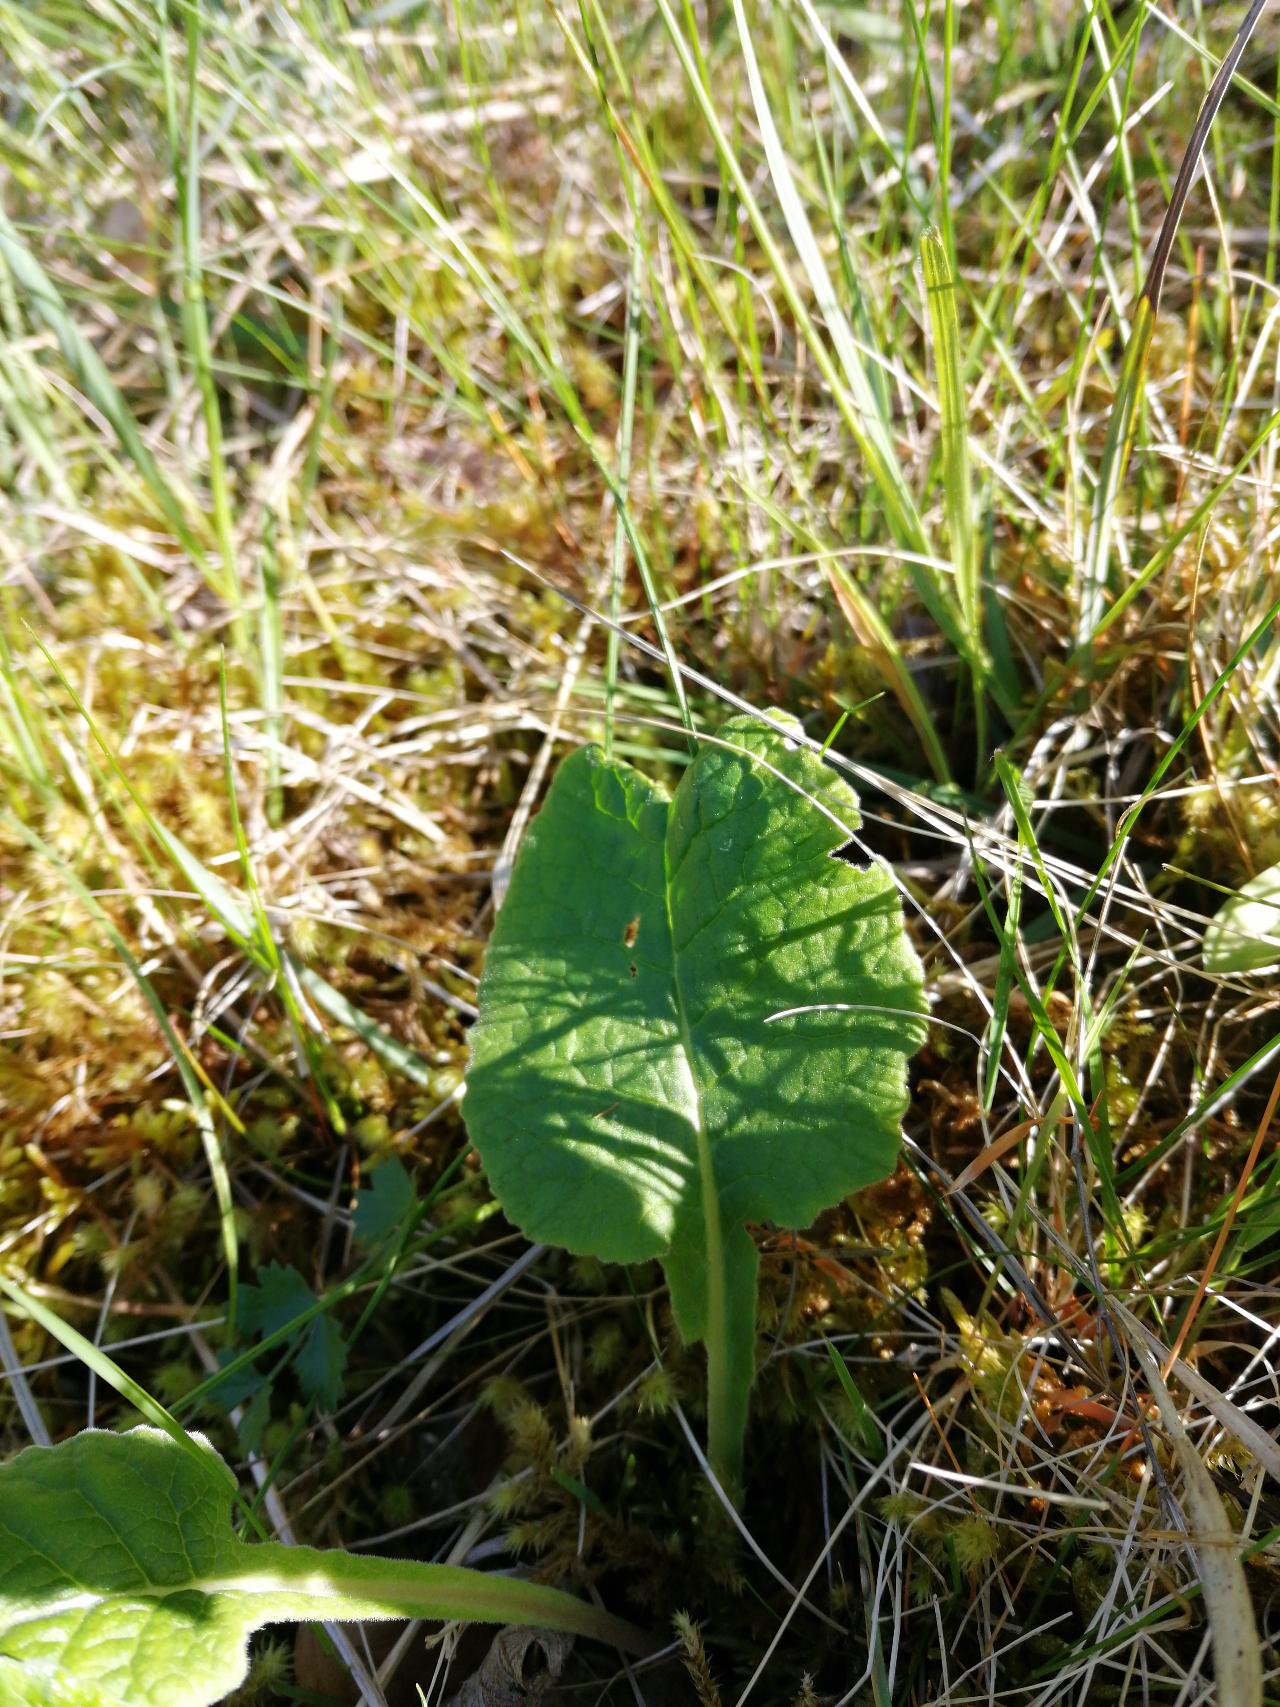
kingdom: Plantae
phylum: Tracheophyta
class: Magnoliopsida
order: Ericales
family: Primulaceae
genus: Primula
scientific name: Primula veris
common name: Hulkravet kodriver
